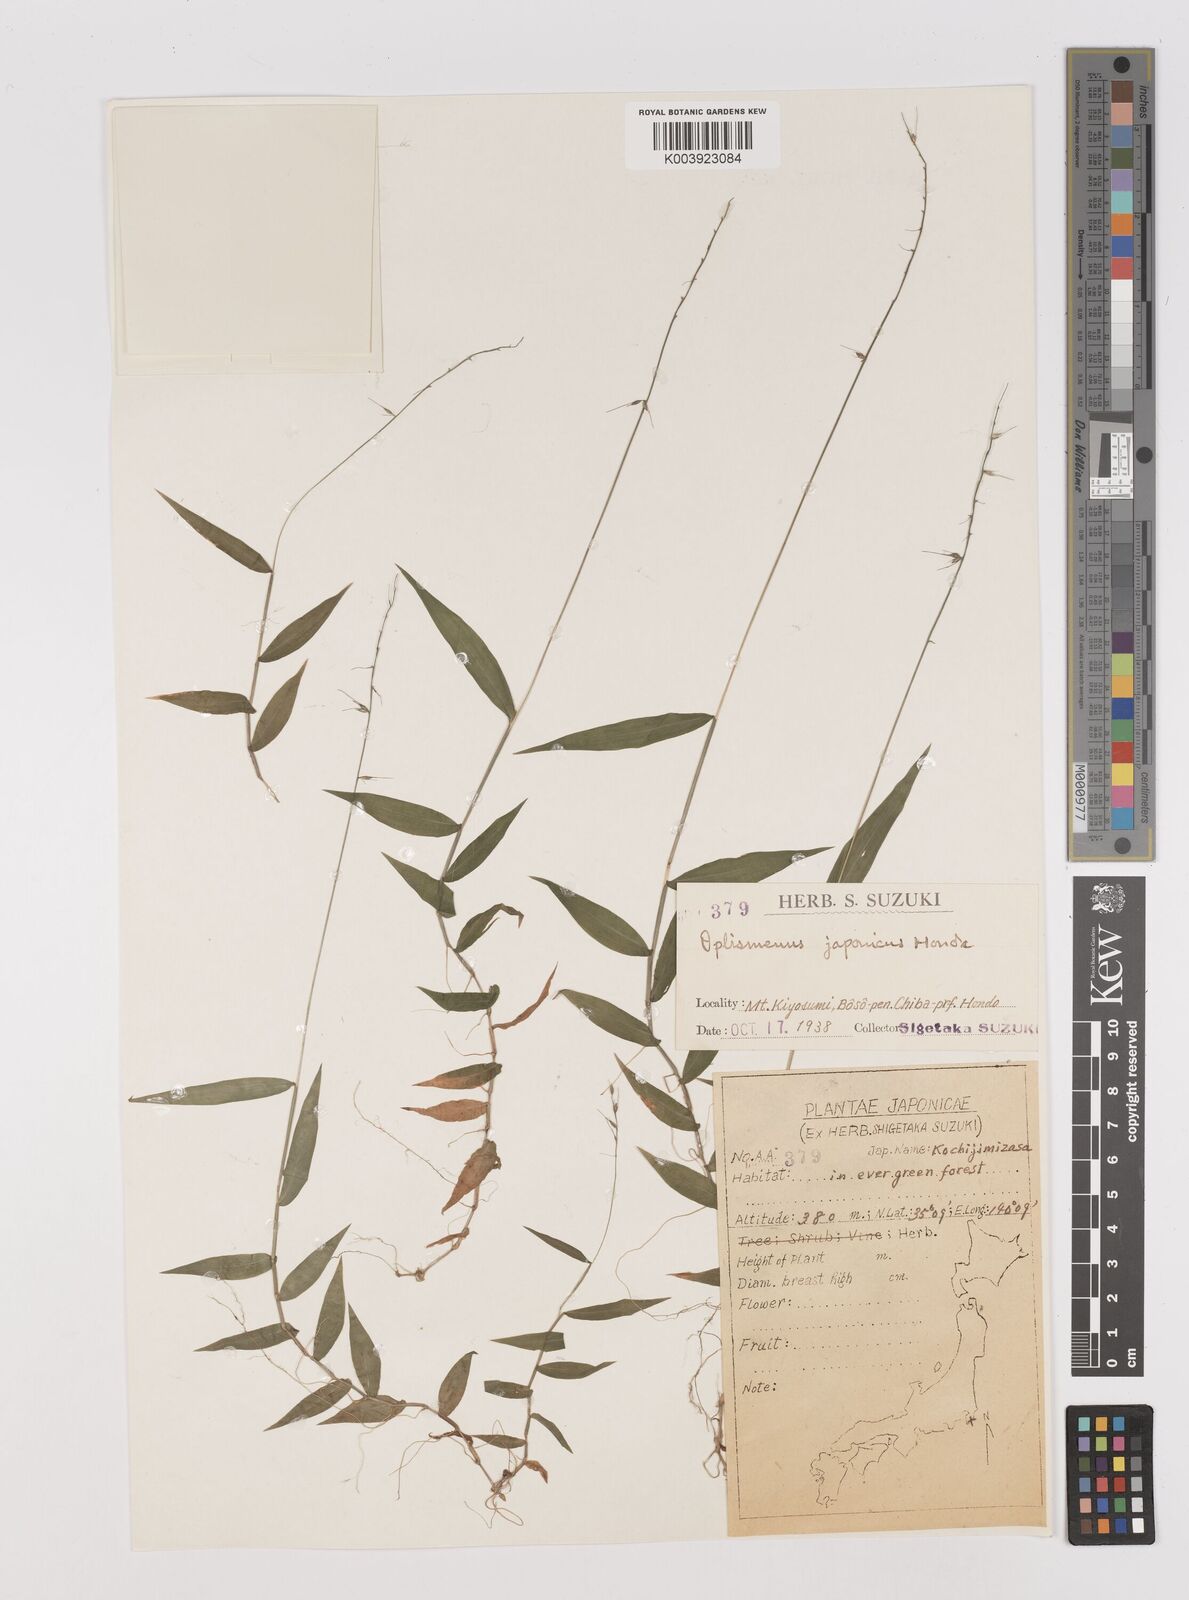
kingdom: Plantae
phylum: Tracheophyta
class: Liliopsida
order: Poales
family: Poaceae
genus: Oplismenus
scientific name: Oplismenus undulatifolius
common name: Wavyleaf basketgrass
